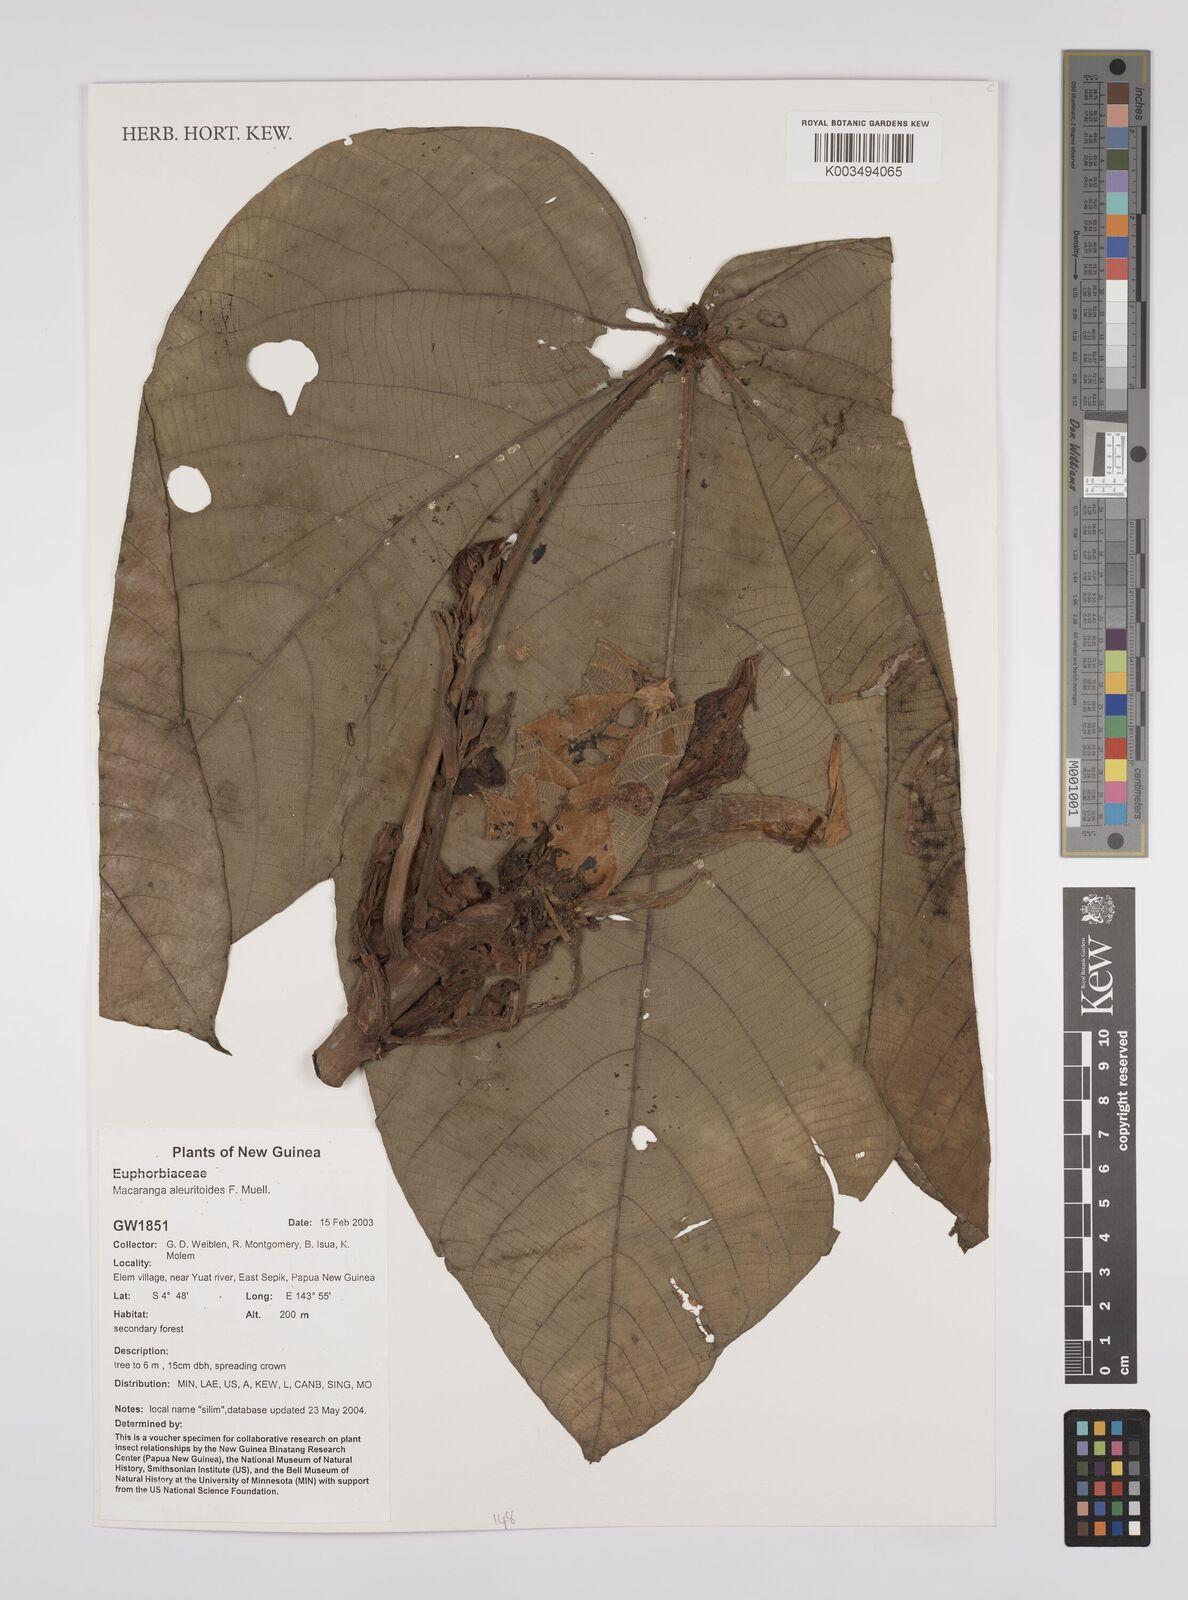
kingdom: Plantae
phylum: Tracheophyta
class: Magnoliopsida
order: Malpighiales
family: Euphorbiaceae
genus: Macaranga
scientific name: Macaranga aleuritoides
